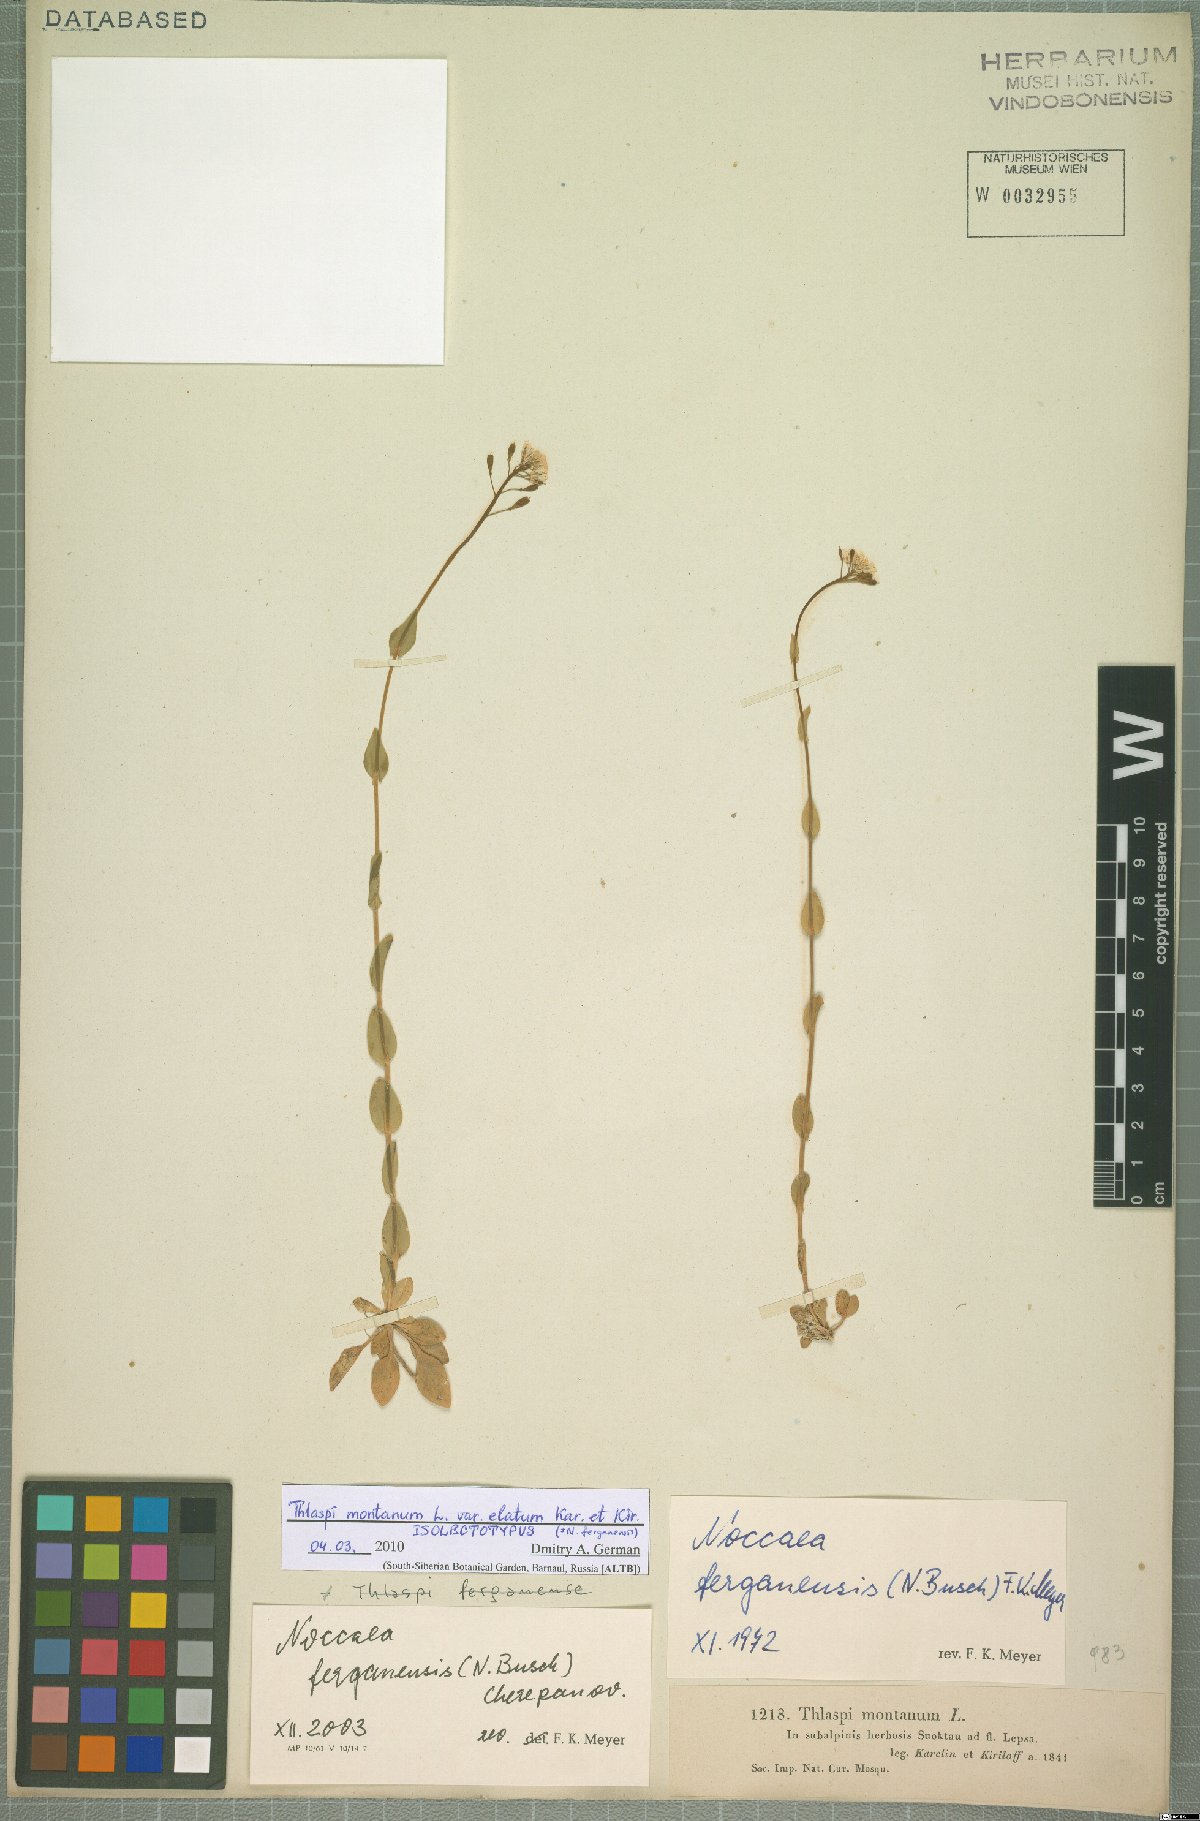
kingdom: Plantae
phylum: Tracheophyta
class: Magnoliopsida
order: Brassicales
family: Brassicaceae
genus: Noccaea
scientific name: Noccaea ferganensis
